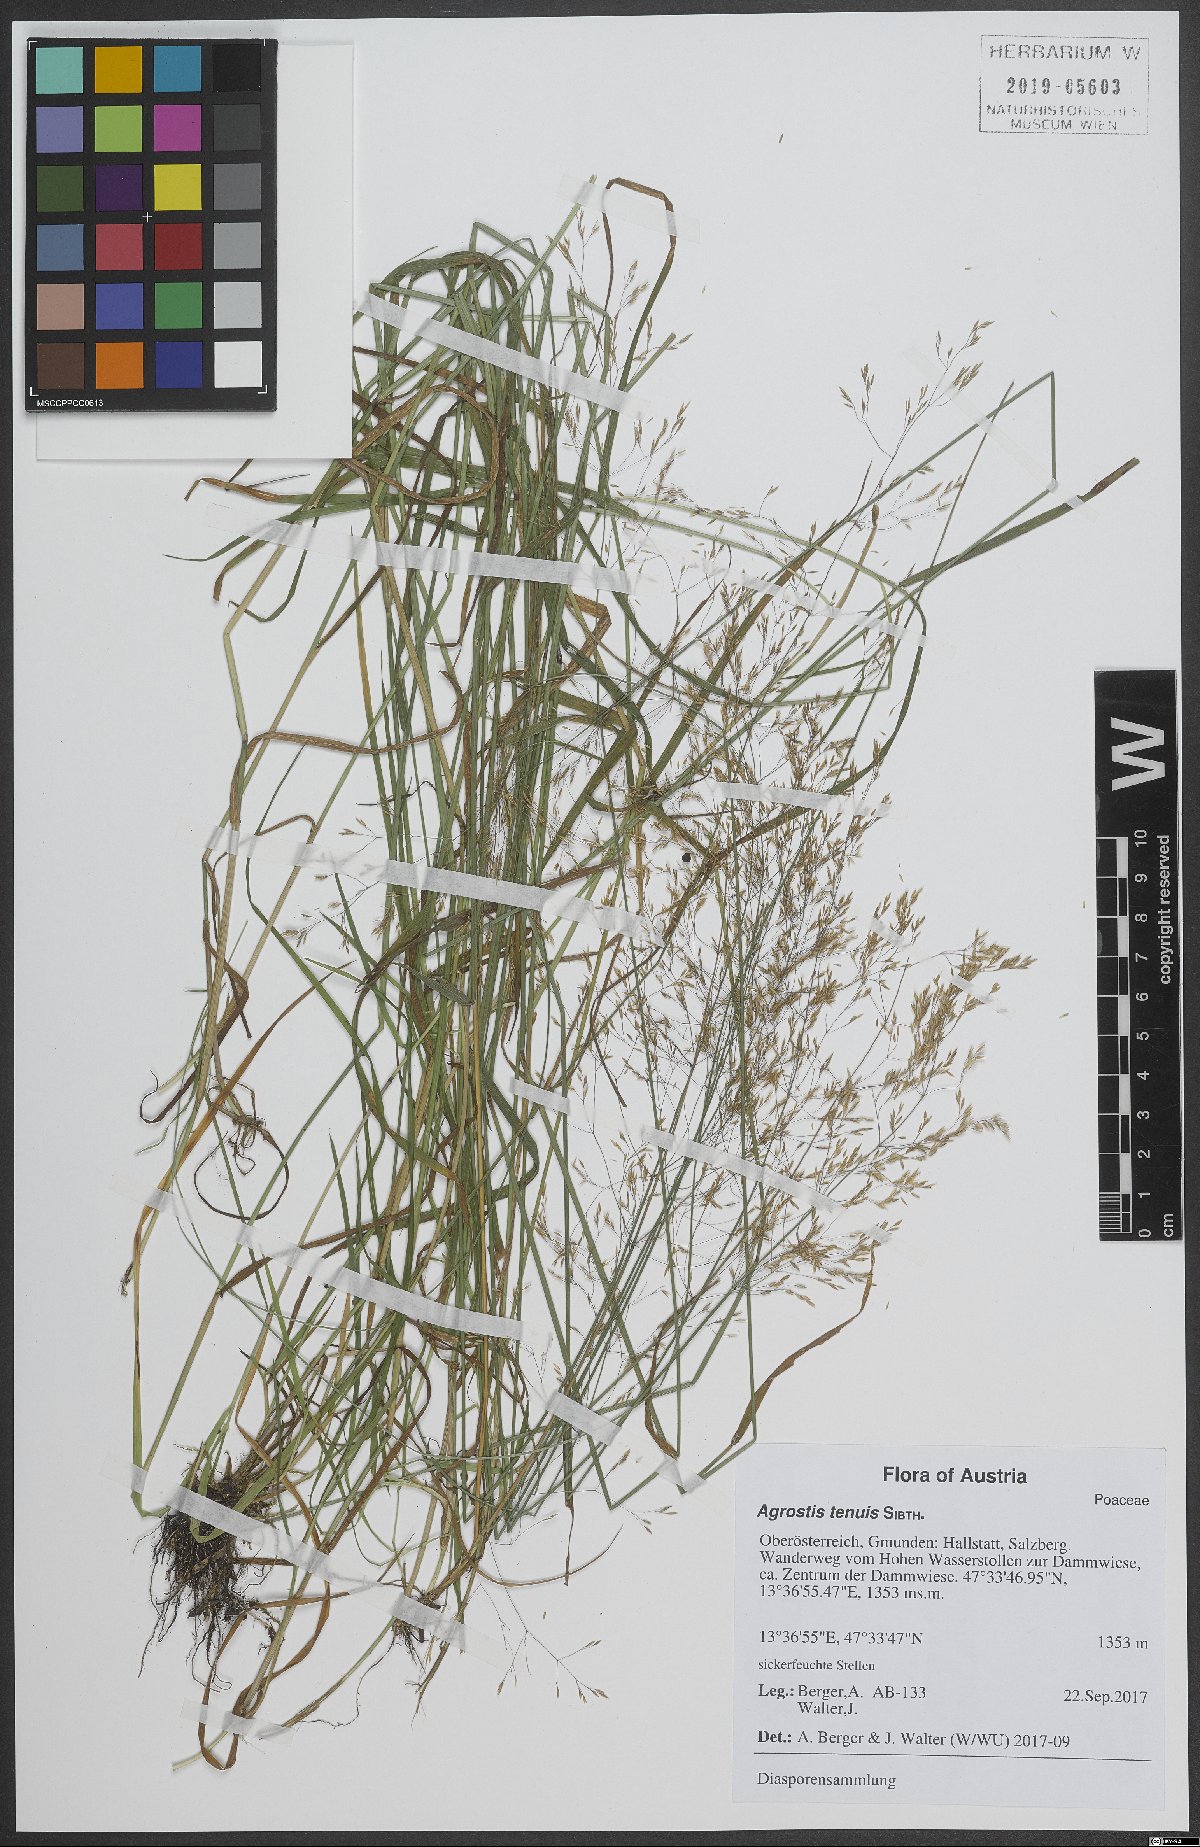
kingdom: Plantae
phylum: Tracheophyta
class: Liliopsida
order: Poales
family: Poaceae
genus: Agrostis
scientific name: Agrostis capillaris
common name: Colonial bentgrass
